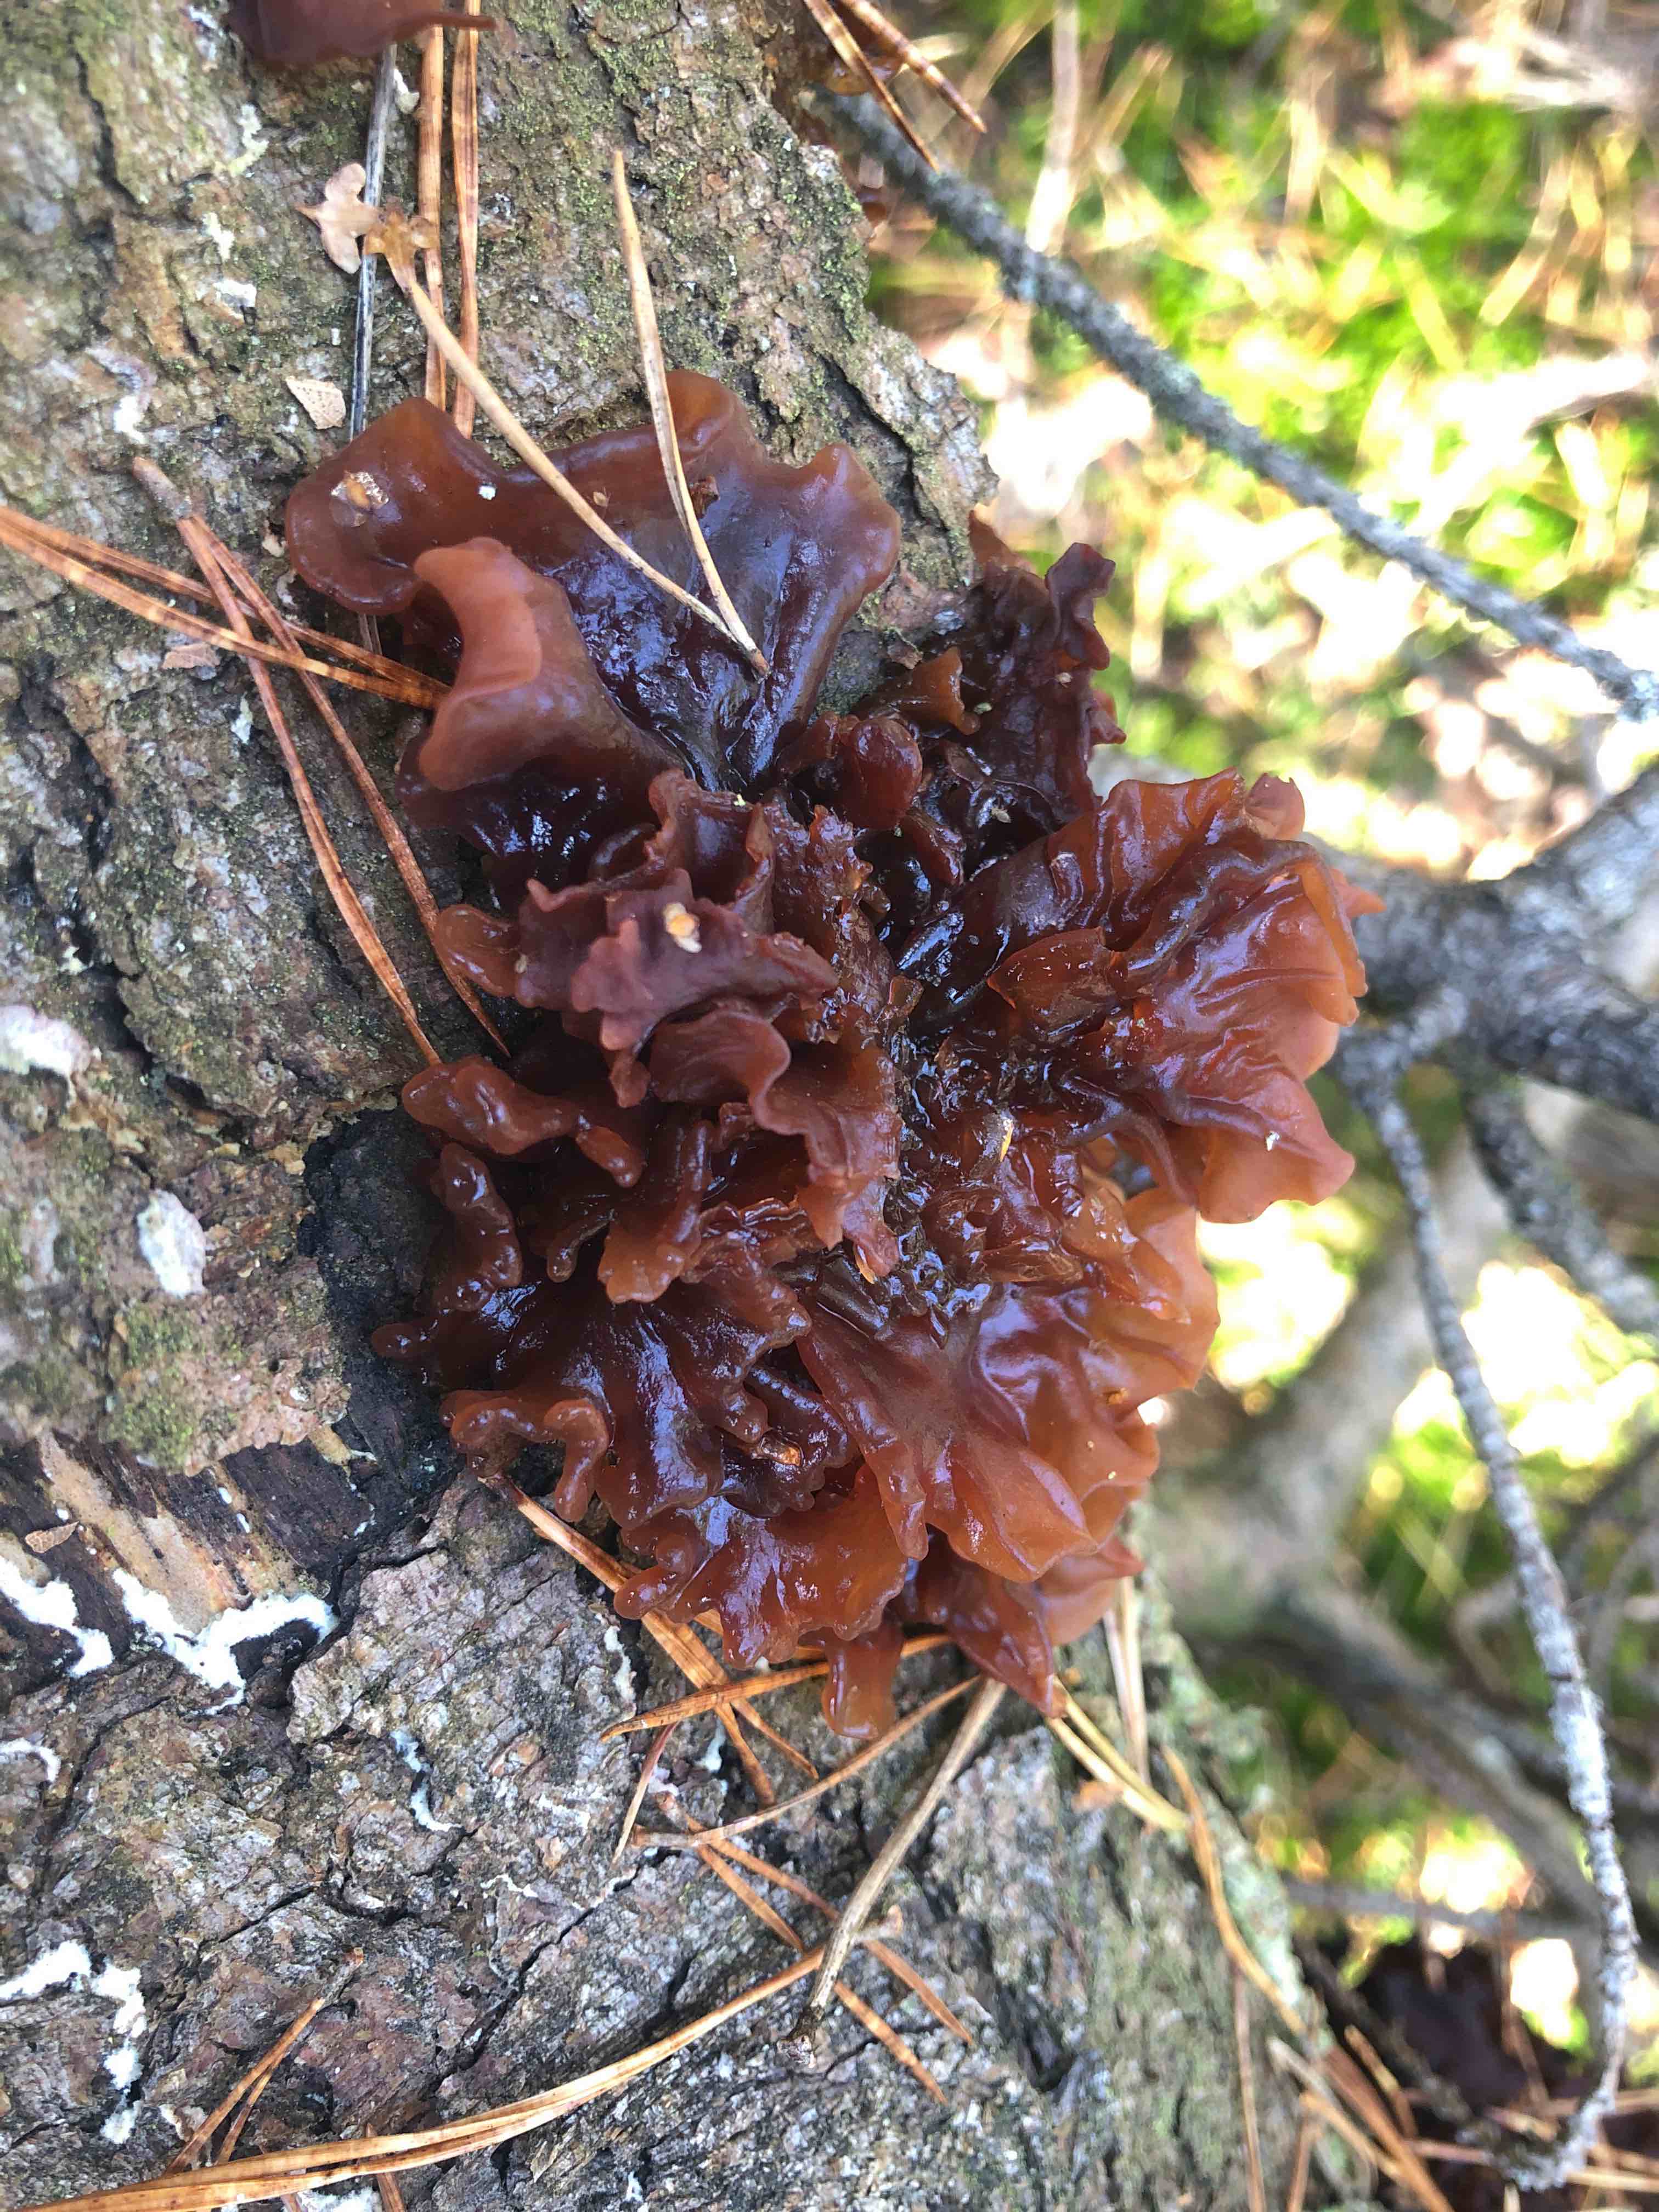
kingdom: Fungi
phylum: Basidiomycota
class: Tremellomycetes
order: Tremellales
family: Tremellaceae
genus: Phaeotremella
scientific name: Phaeotremella foliacea
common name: brun bævresvamp
